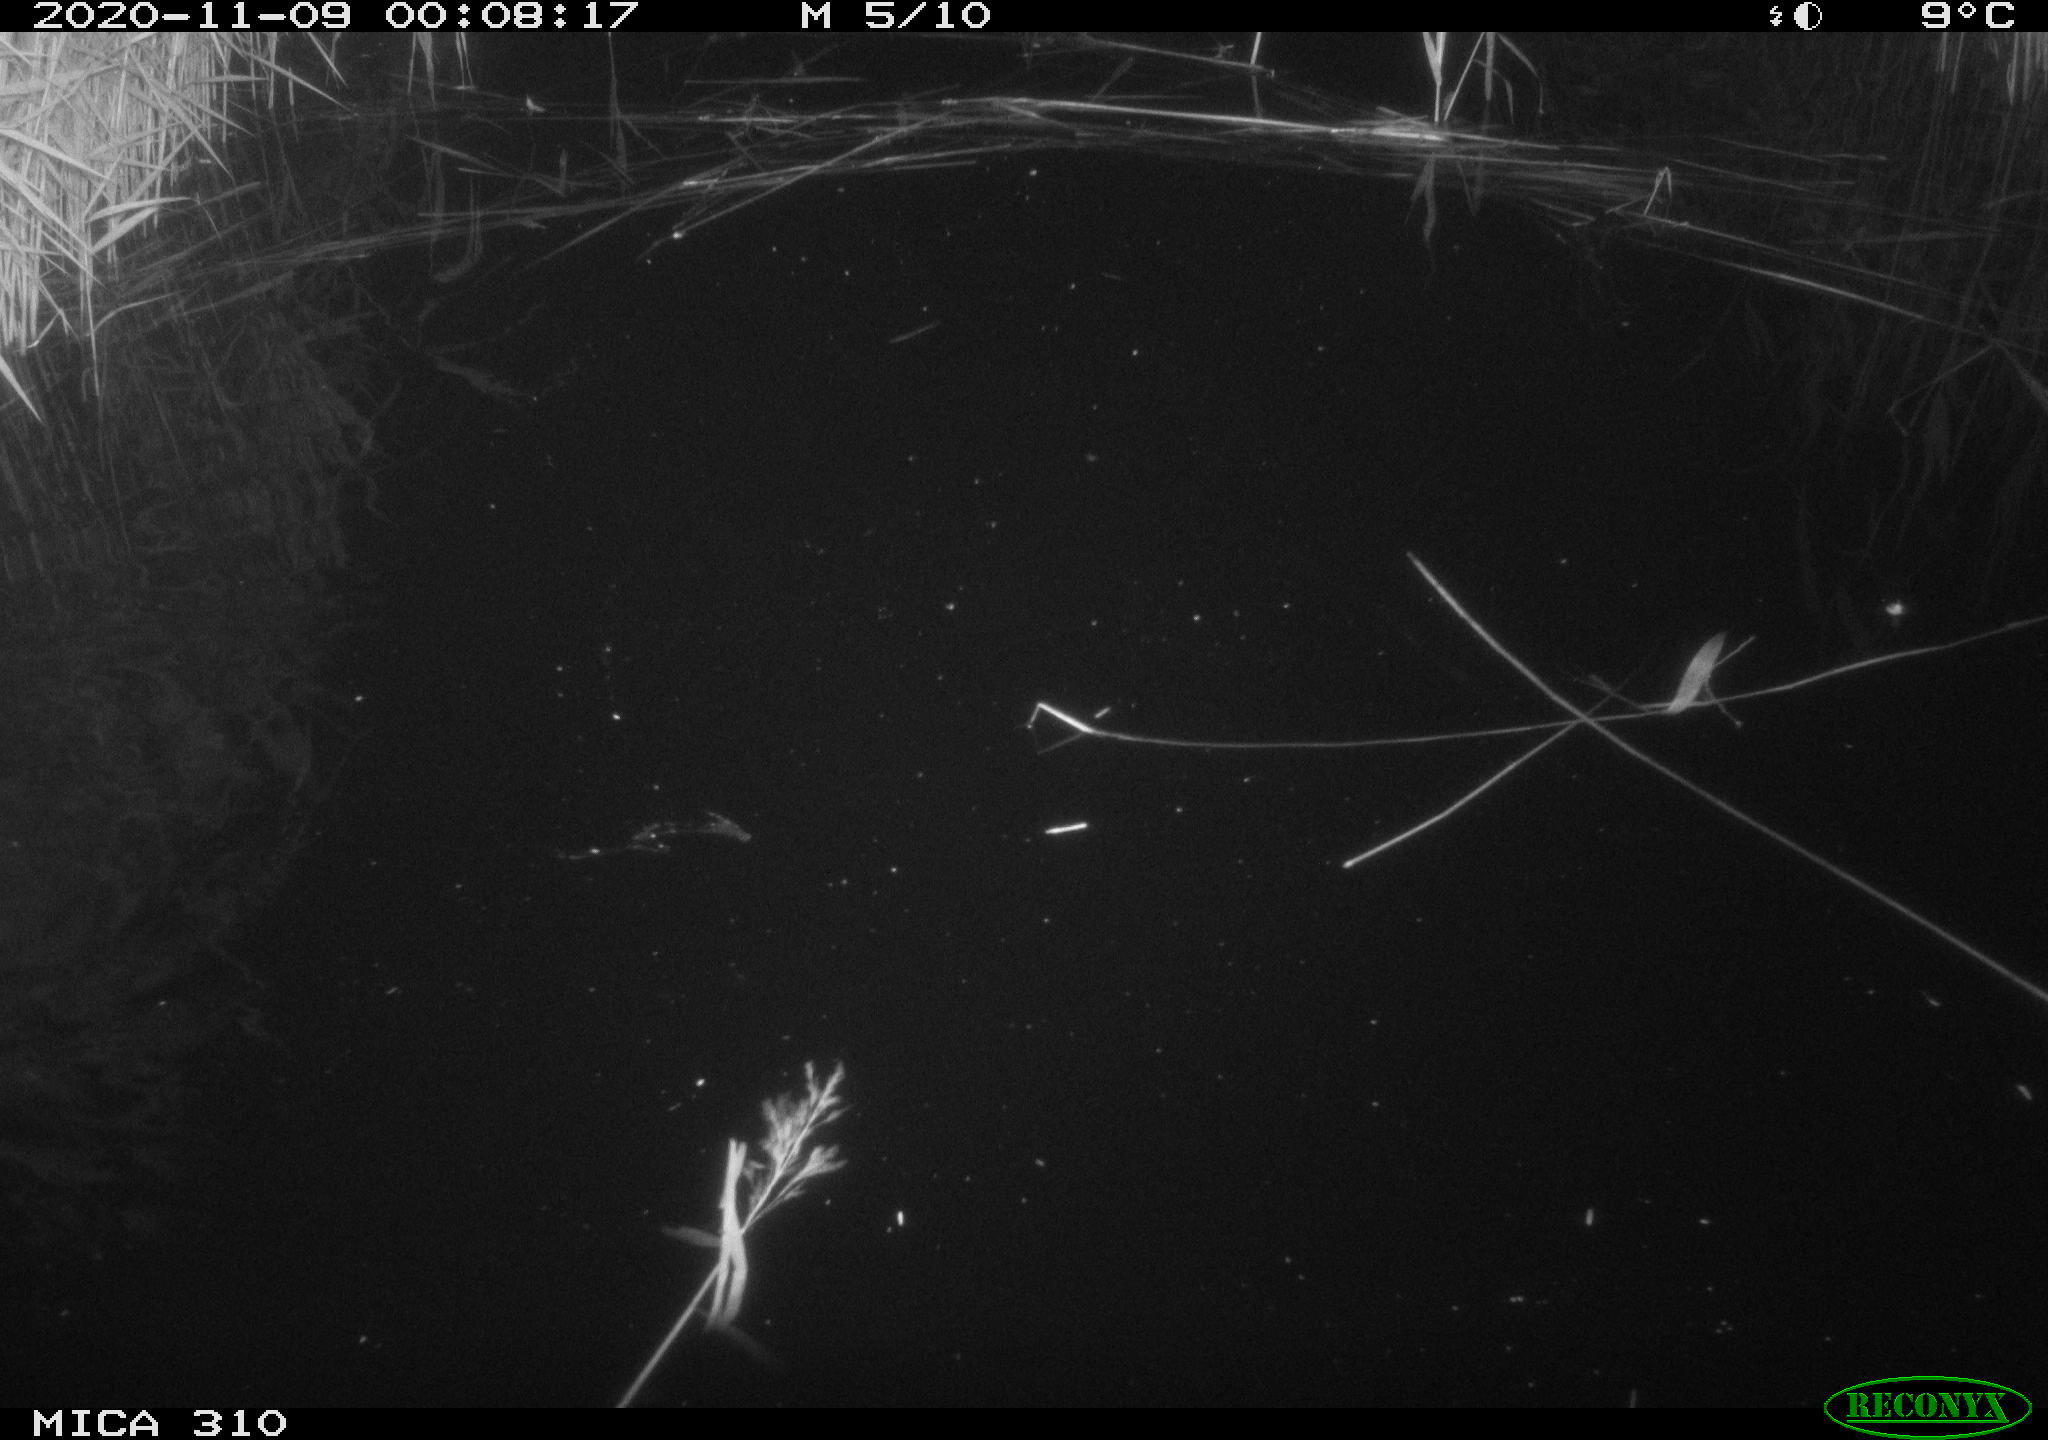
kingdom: Animalia
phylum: Chordata
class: Mammalia
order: Rodentia
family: Muridae
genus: Rattus
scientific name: Rattus norvegicus
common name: Brown rat
